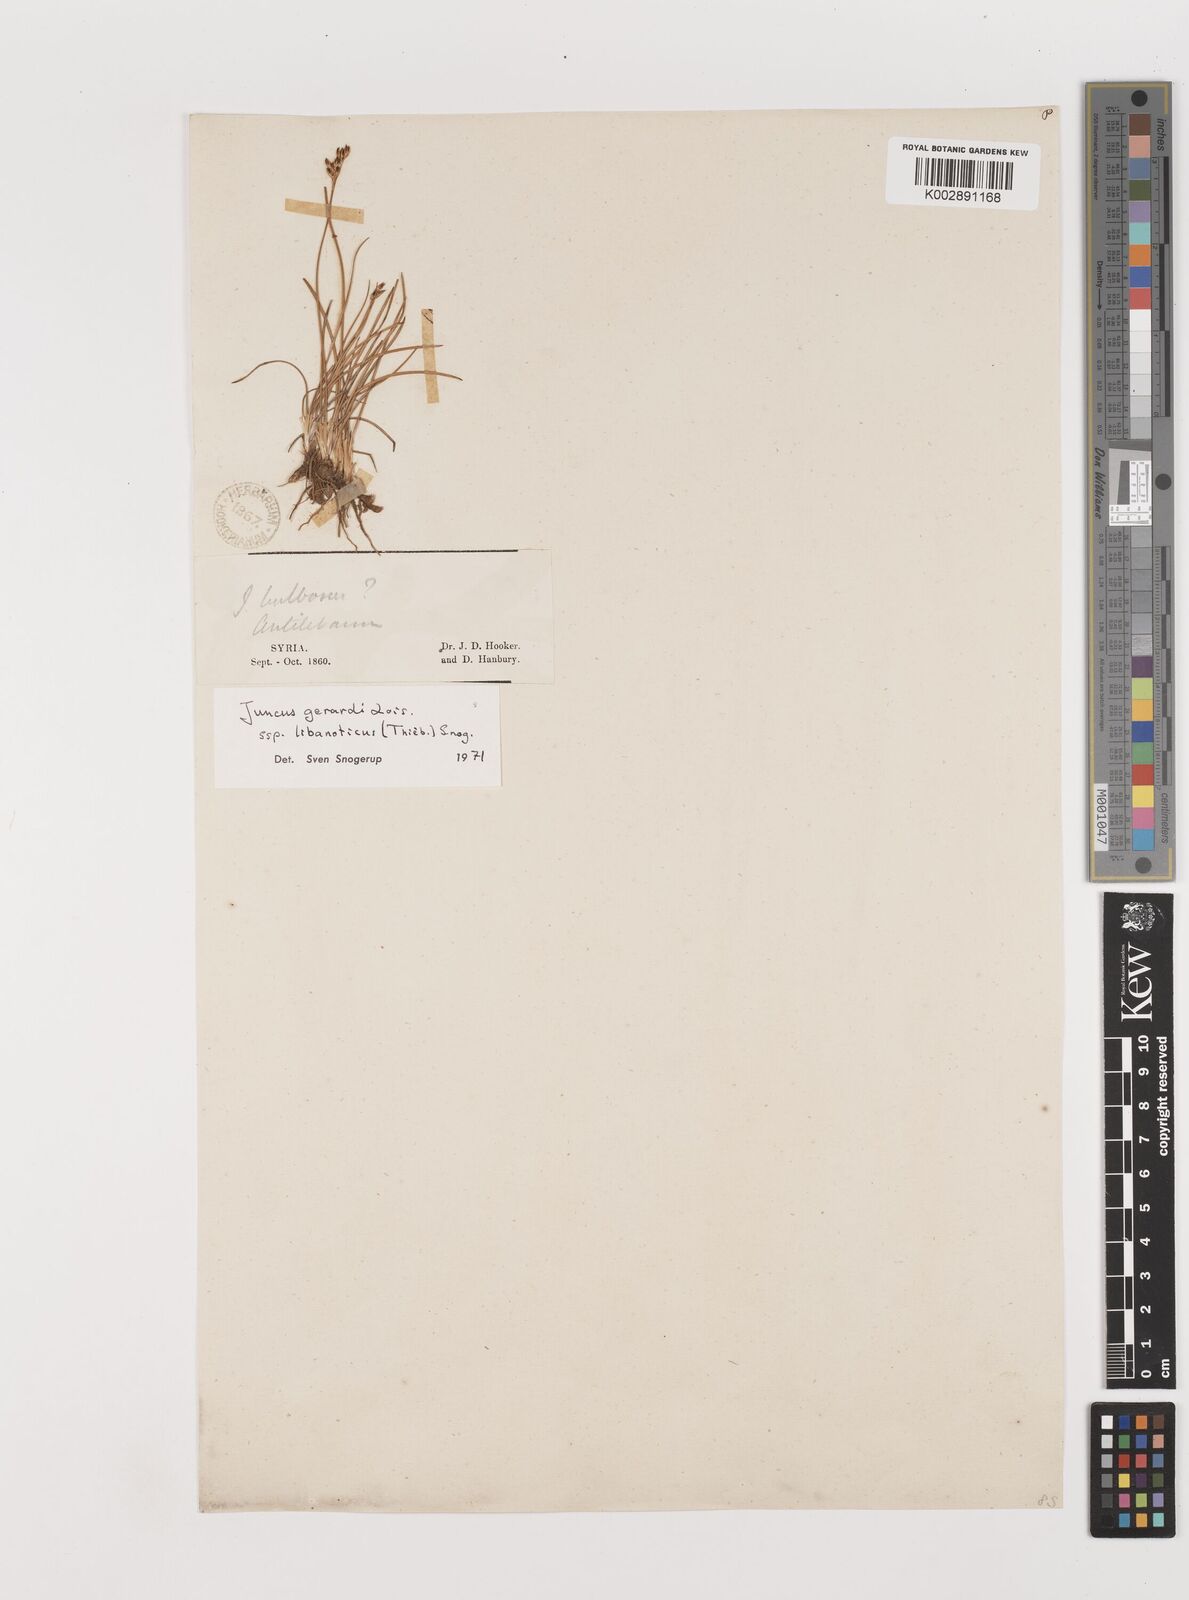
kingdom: Plantae
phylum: Tracheophyta
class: Liliopsida
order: Poales
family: Juncaceae
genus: Juncus
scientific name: Juncus persicus
